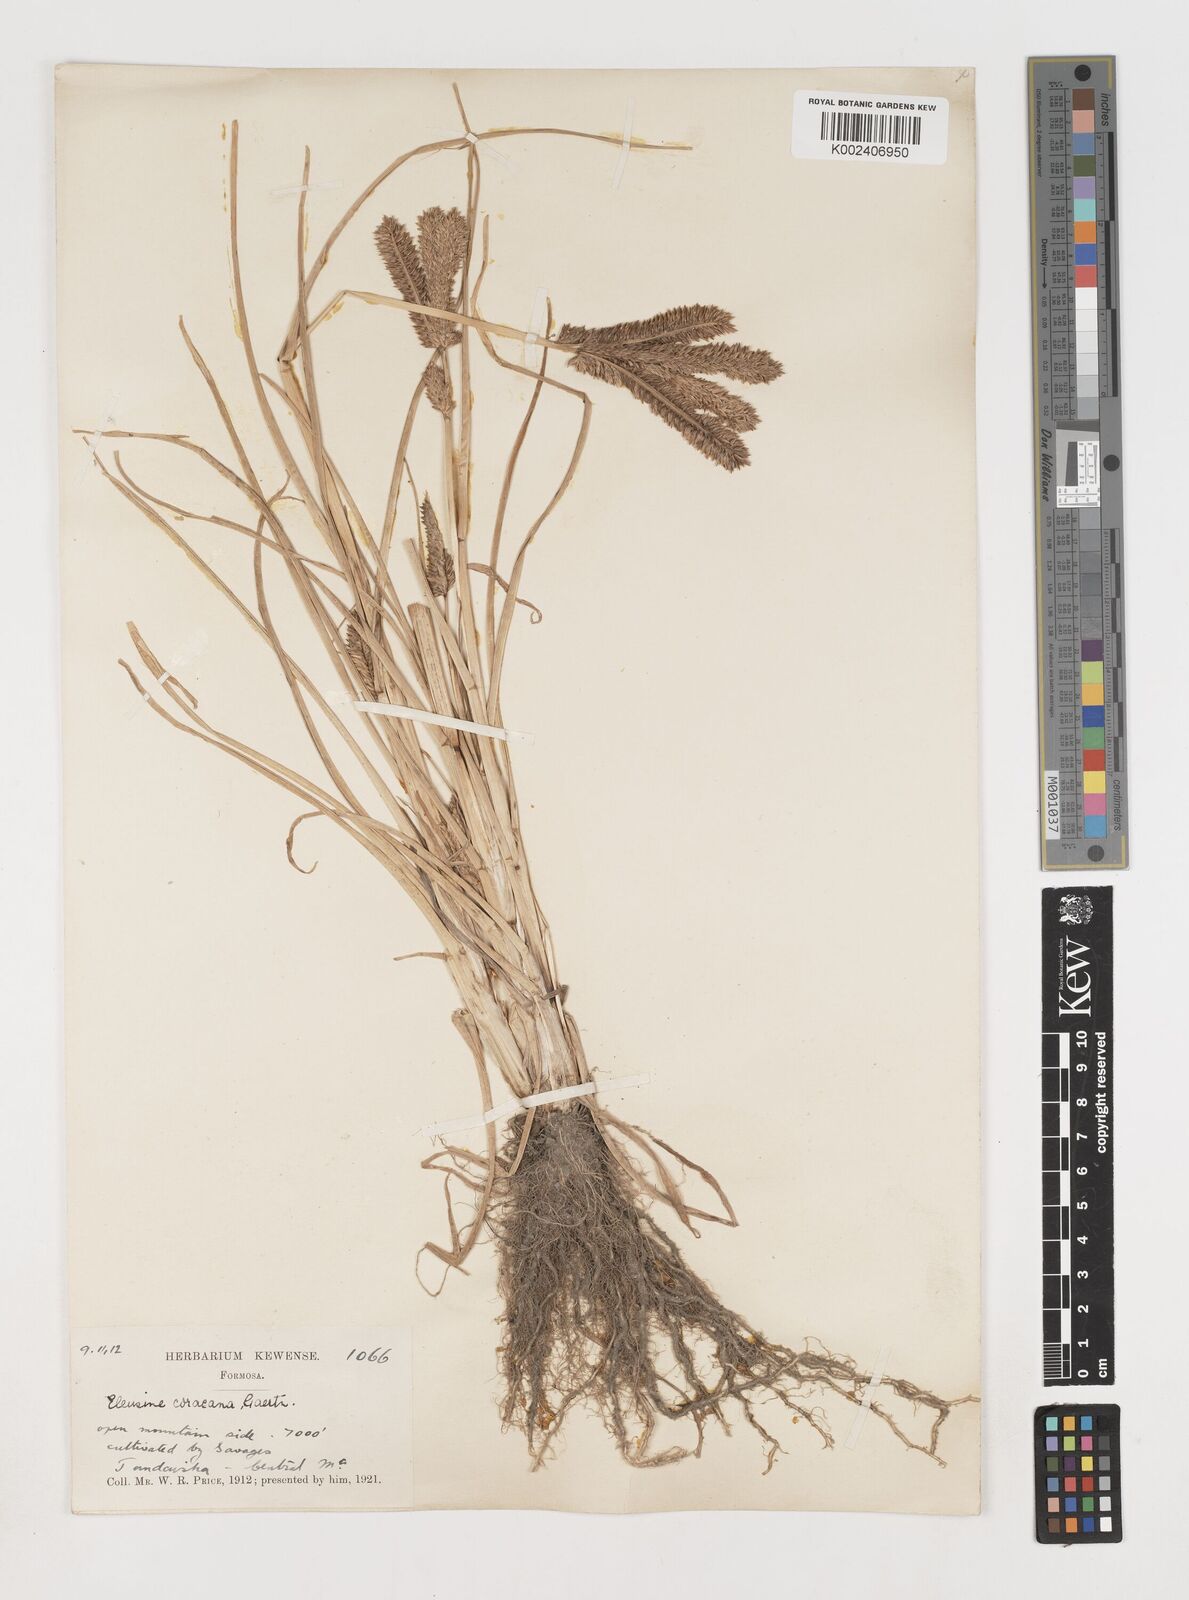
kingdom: Plantae
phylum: Tracheophyta
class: Liliopsida
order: Poales
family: Poaceae
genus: Eleusine
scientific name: Eleusine coracana
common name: Finger millet
